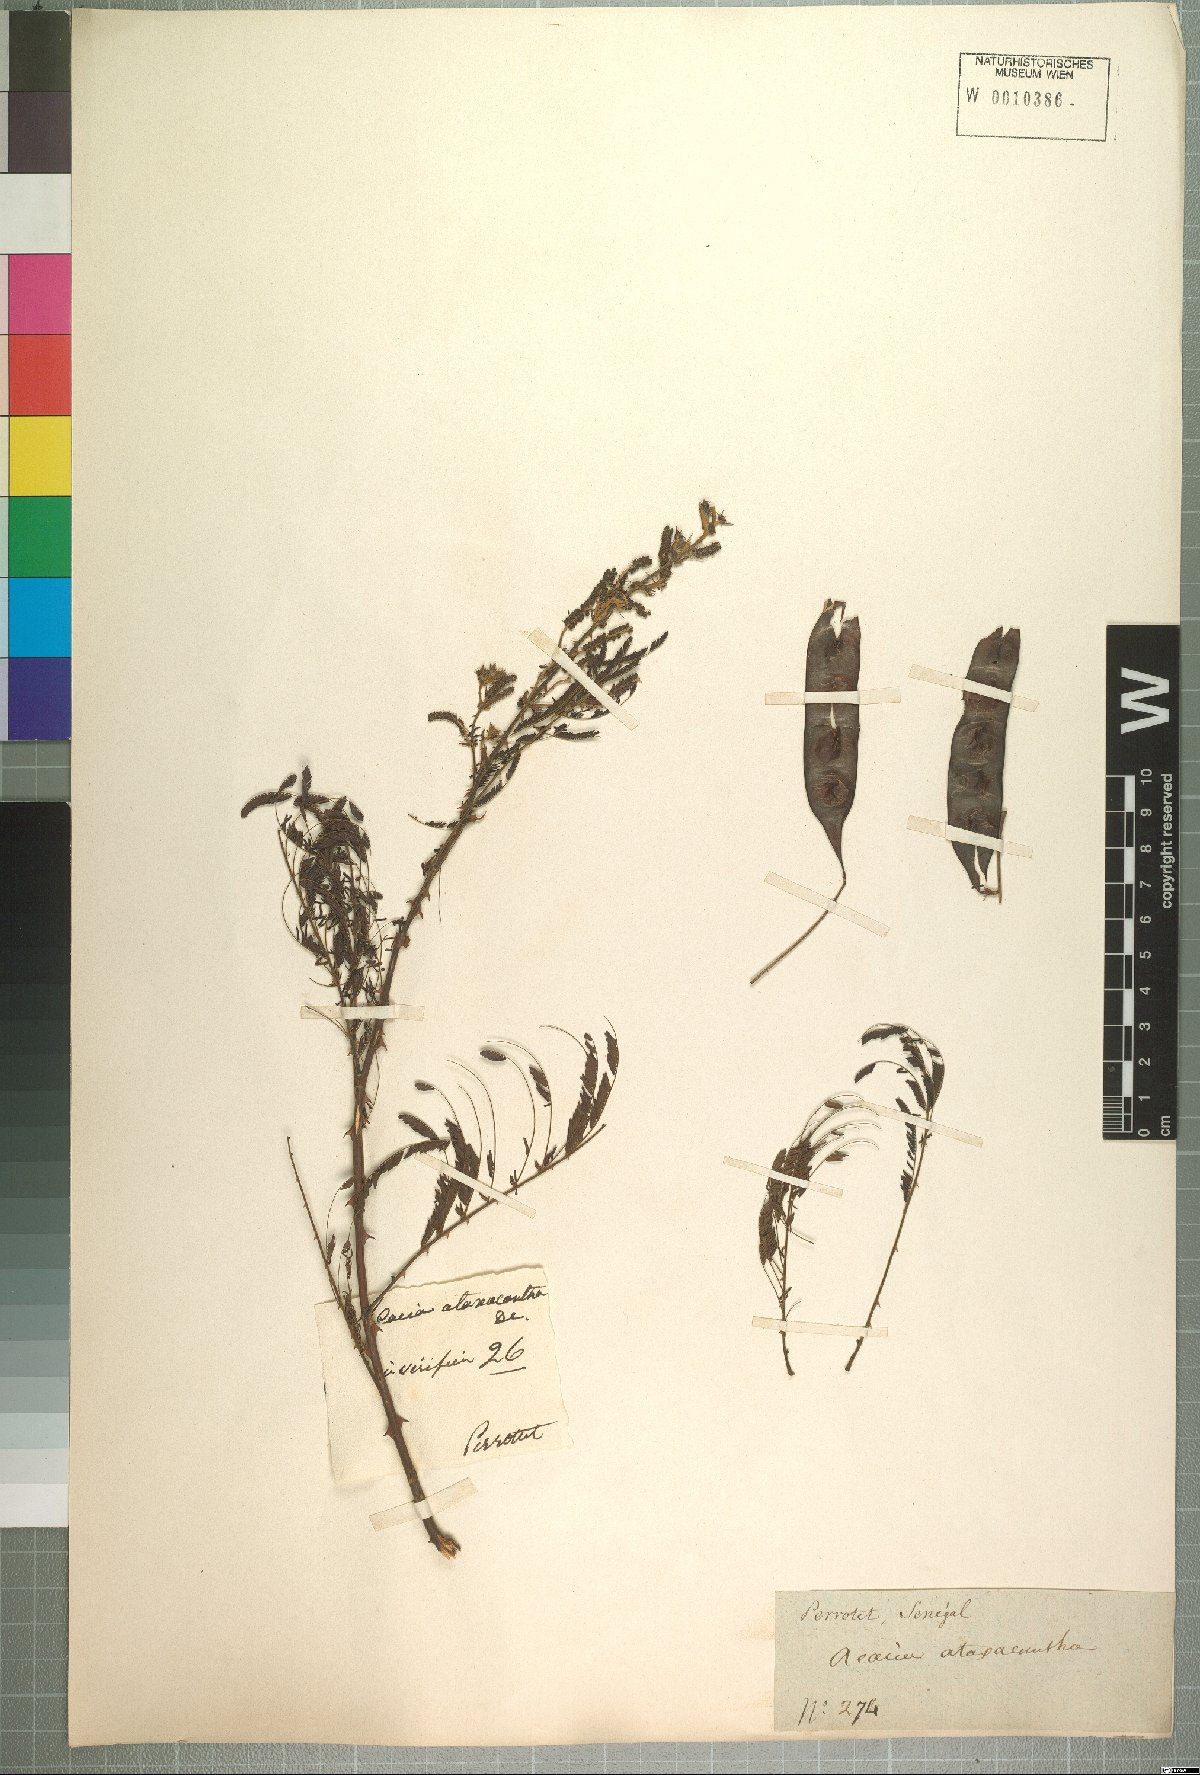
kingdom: Plantae
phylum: Tracheophyta
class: Magnoliopsida
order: Fabales
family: Fabaceae
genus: Senegalia
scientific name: Senegalia ataxacantha
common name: Flame acacia
